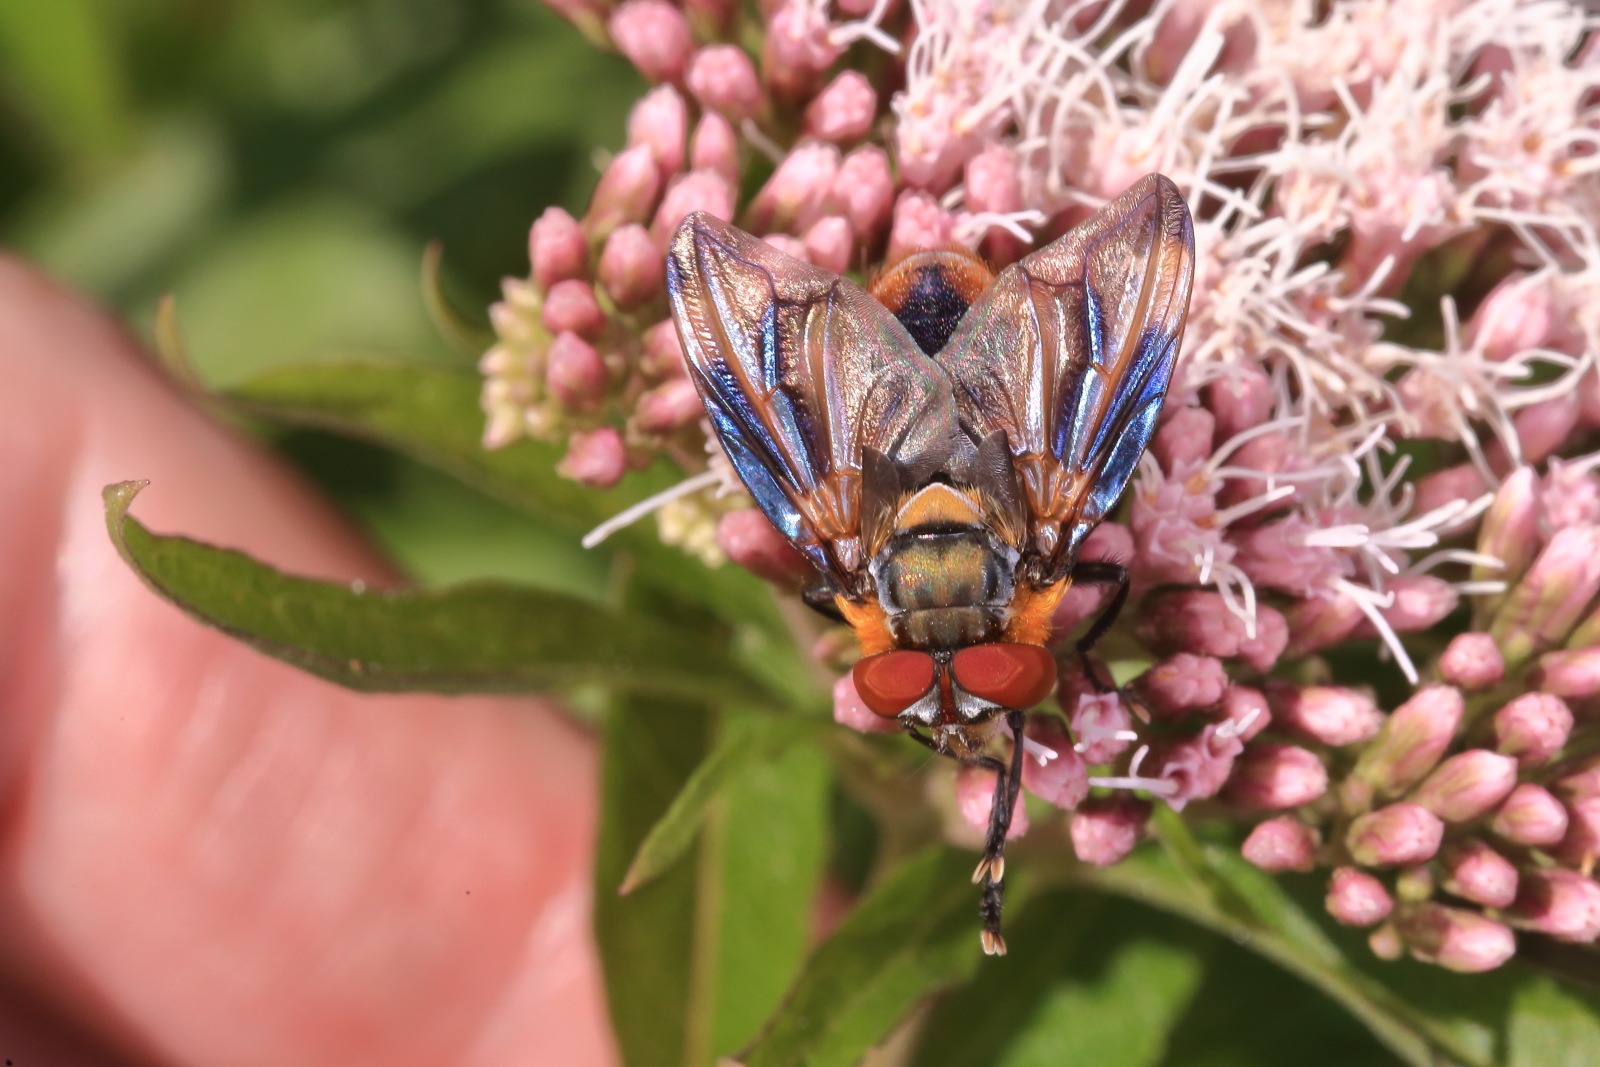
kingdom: Animalia
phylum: Arthropoda
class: Insecta
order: Diptera
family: Tachinidae
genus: Phasia
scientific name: Phasia hemiptera
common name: Blåvinget pragtsnylteflue
